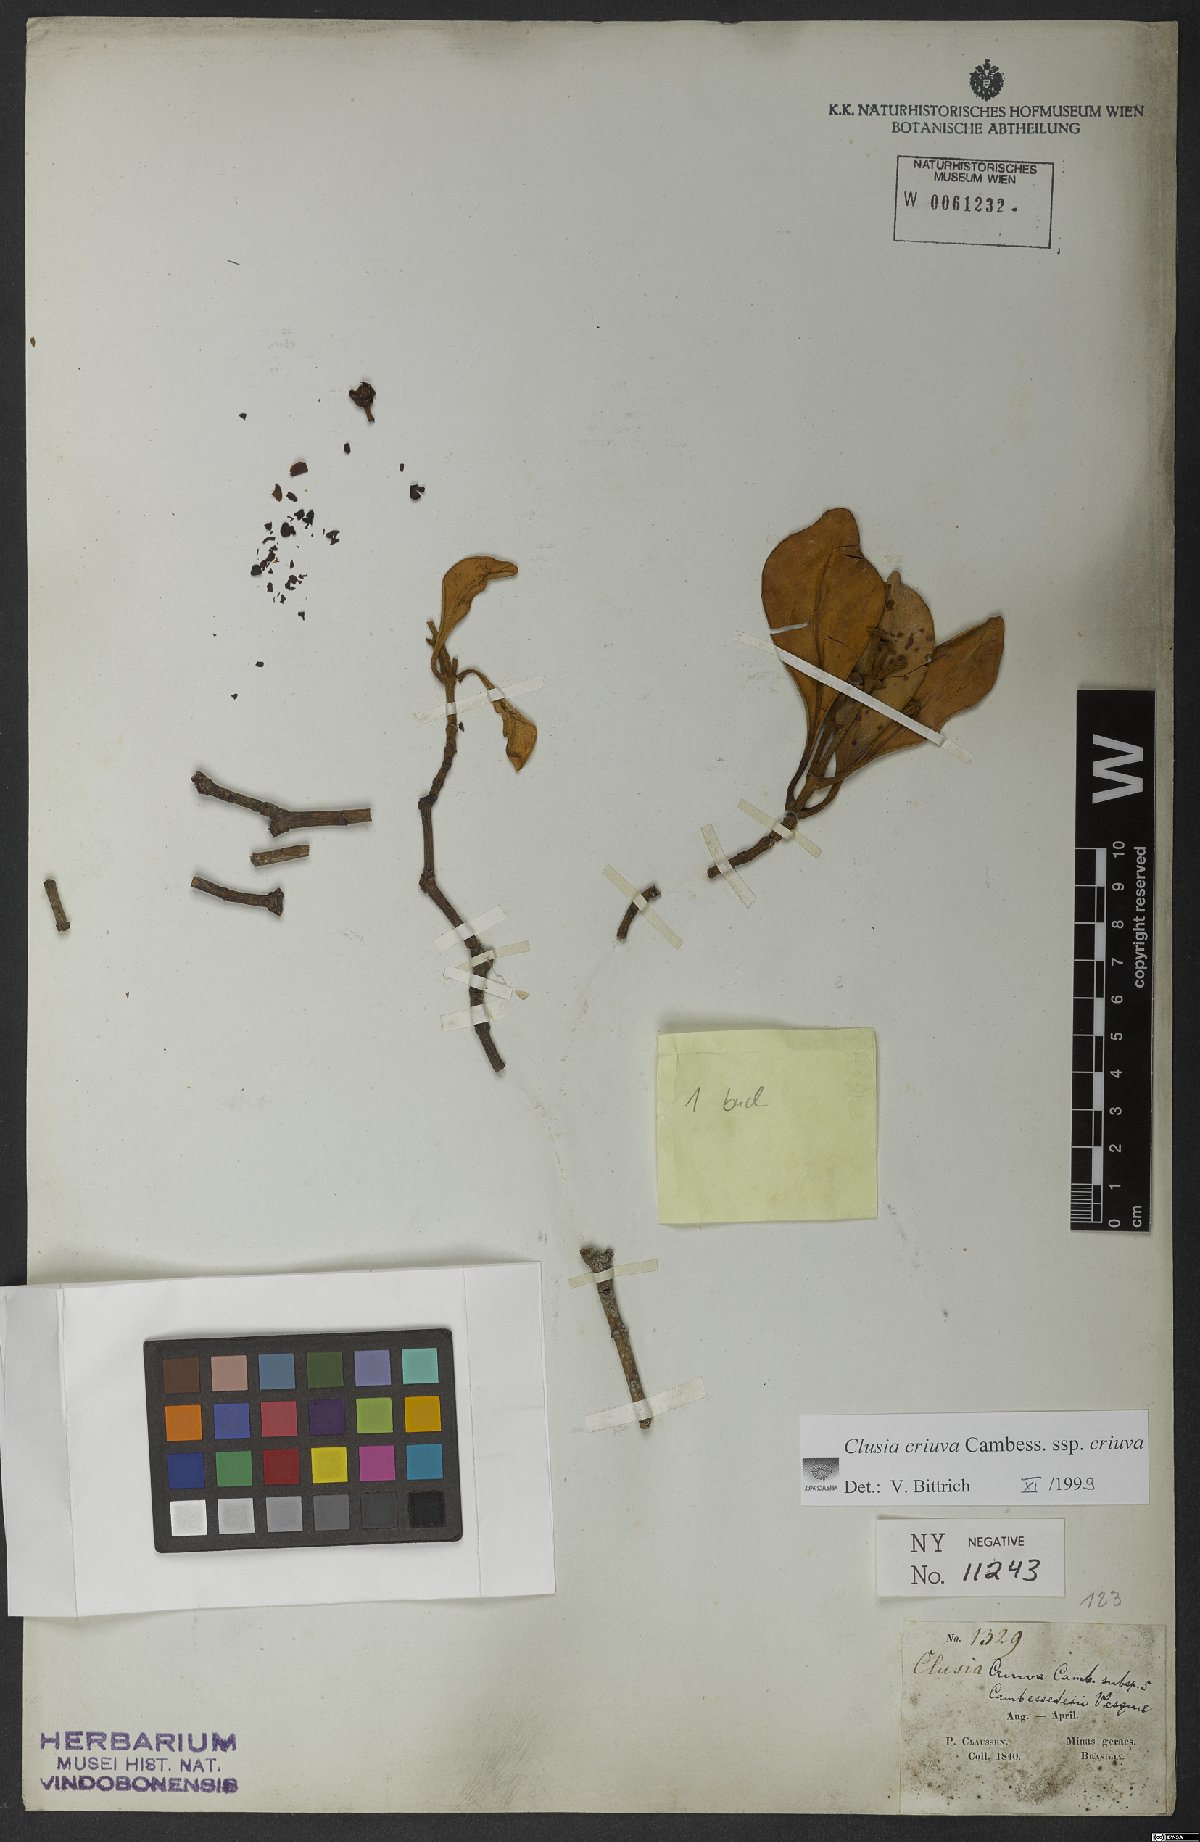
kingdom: Plantae
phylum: Tracheophyta
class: Magnoliopsida
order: Malpighiales
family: Clusiaceae
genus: Clusia
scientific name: Clusia criuva
